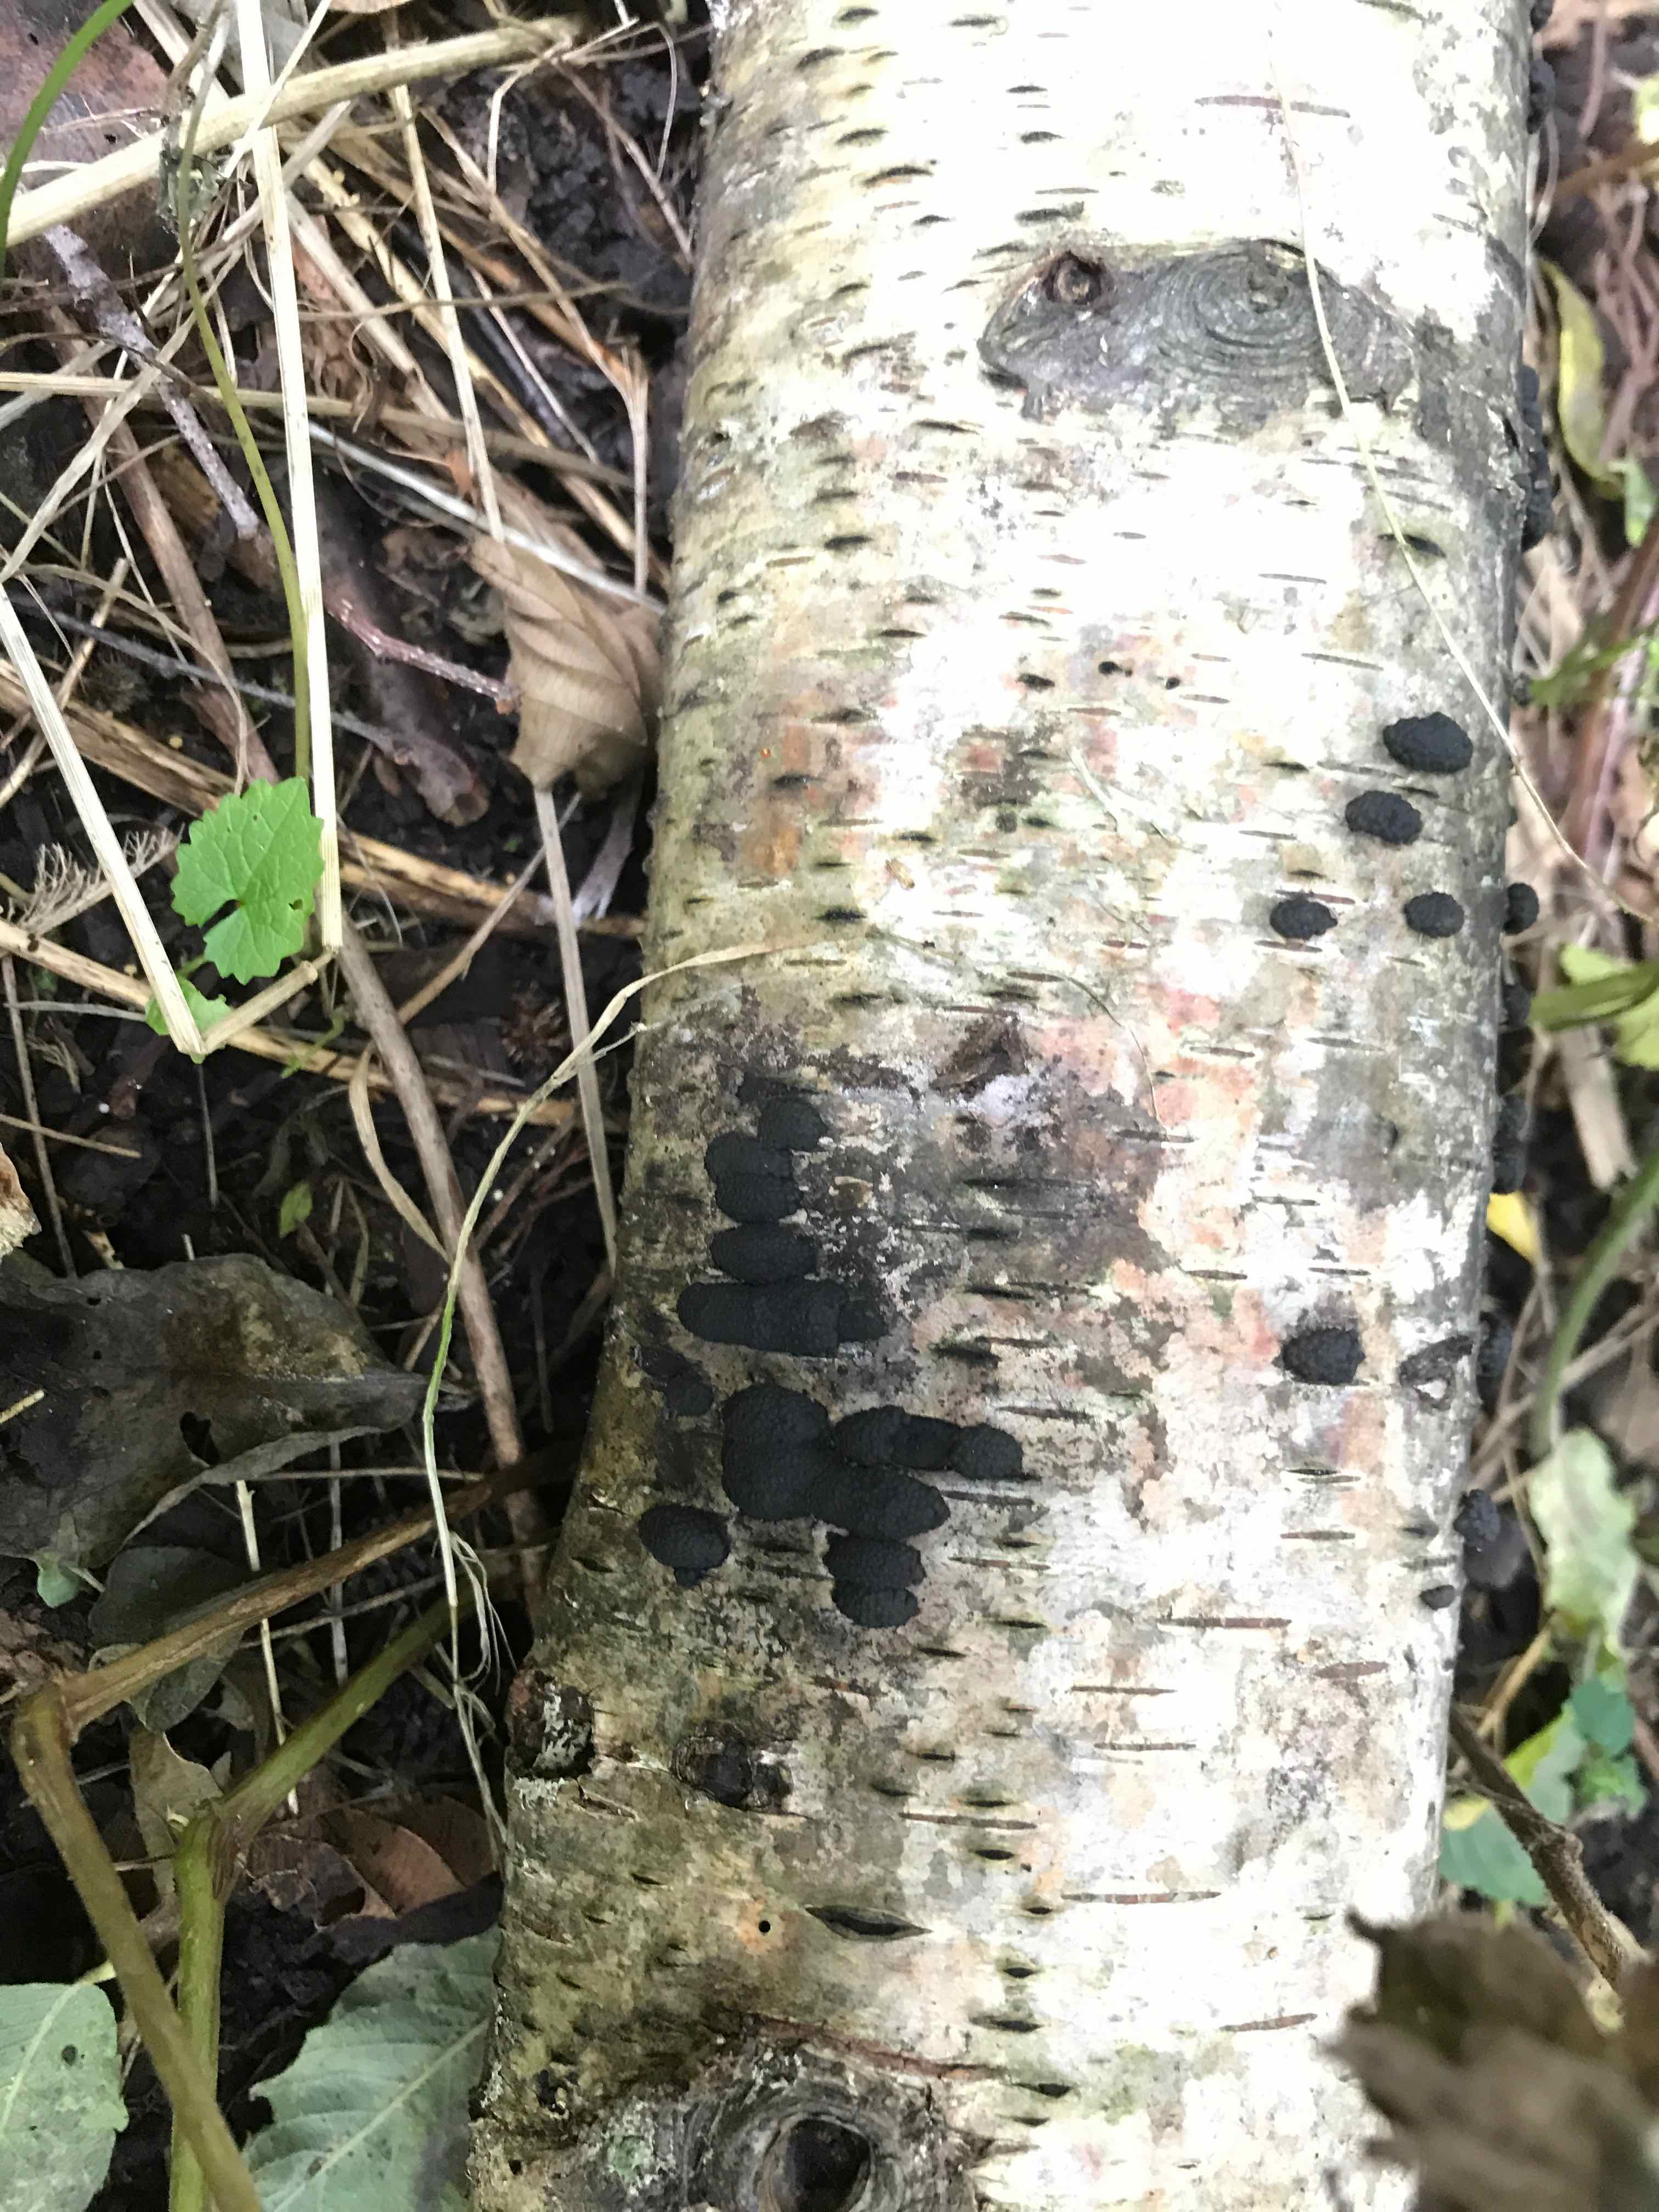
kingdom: Fungi
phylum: Ascomycota
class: Sordariomycetes
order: Xylariales
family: Hypoxylaceae
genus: Jackrogersella
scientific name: Jackrogersella multiformis
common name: foranderlig kulbær
